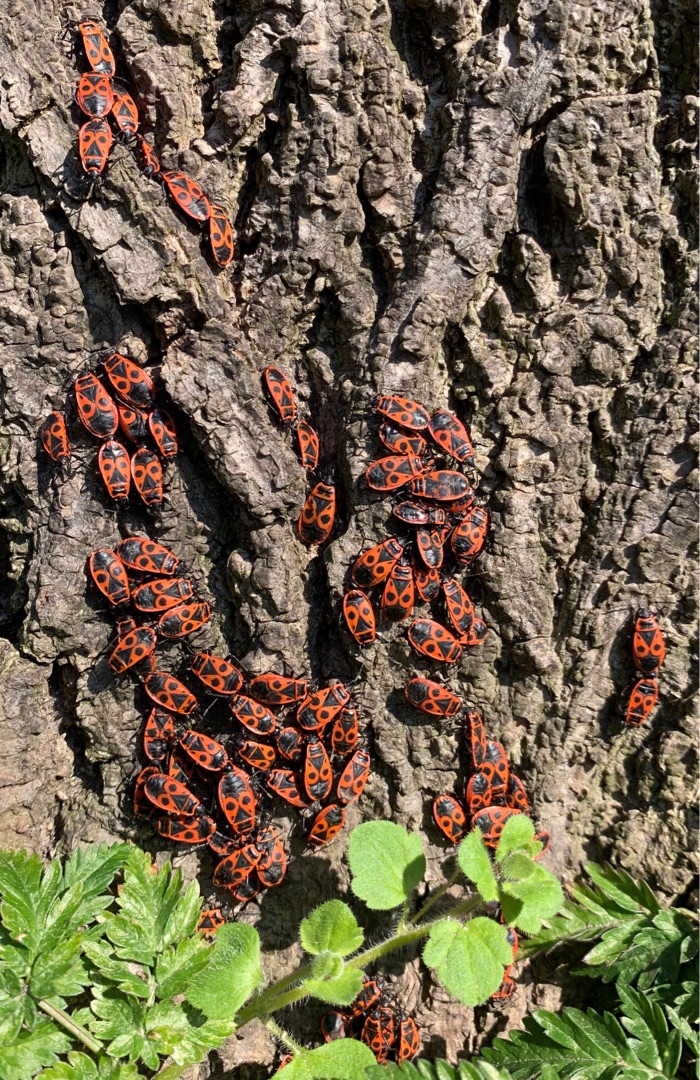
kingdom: Animalia
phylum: Arthropoda
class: Insecta
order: Hemiptera
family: Pyrrhocoridae
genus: Pyrrhocoris
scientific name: Pyrrhocoris apterus
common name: Ildtæge
